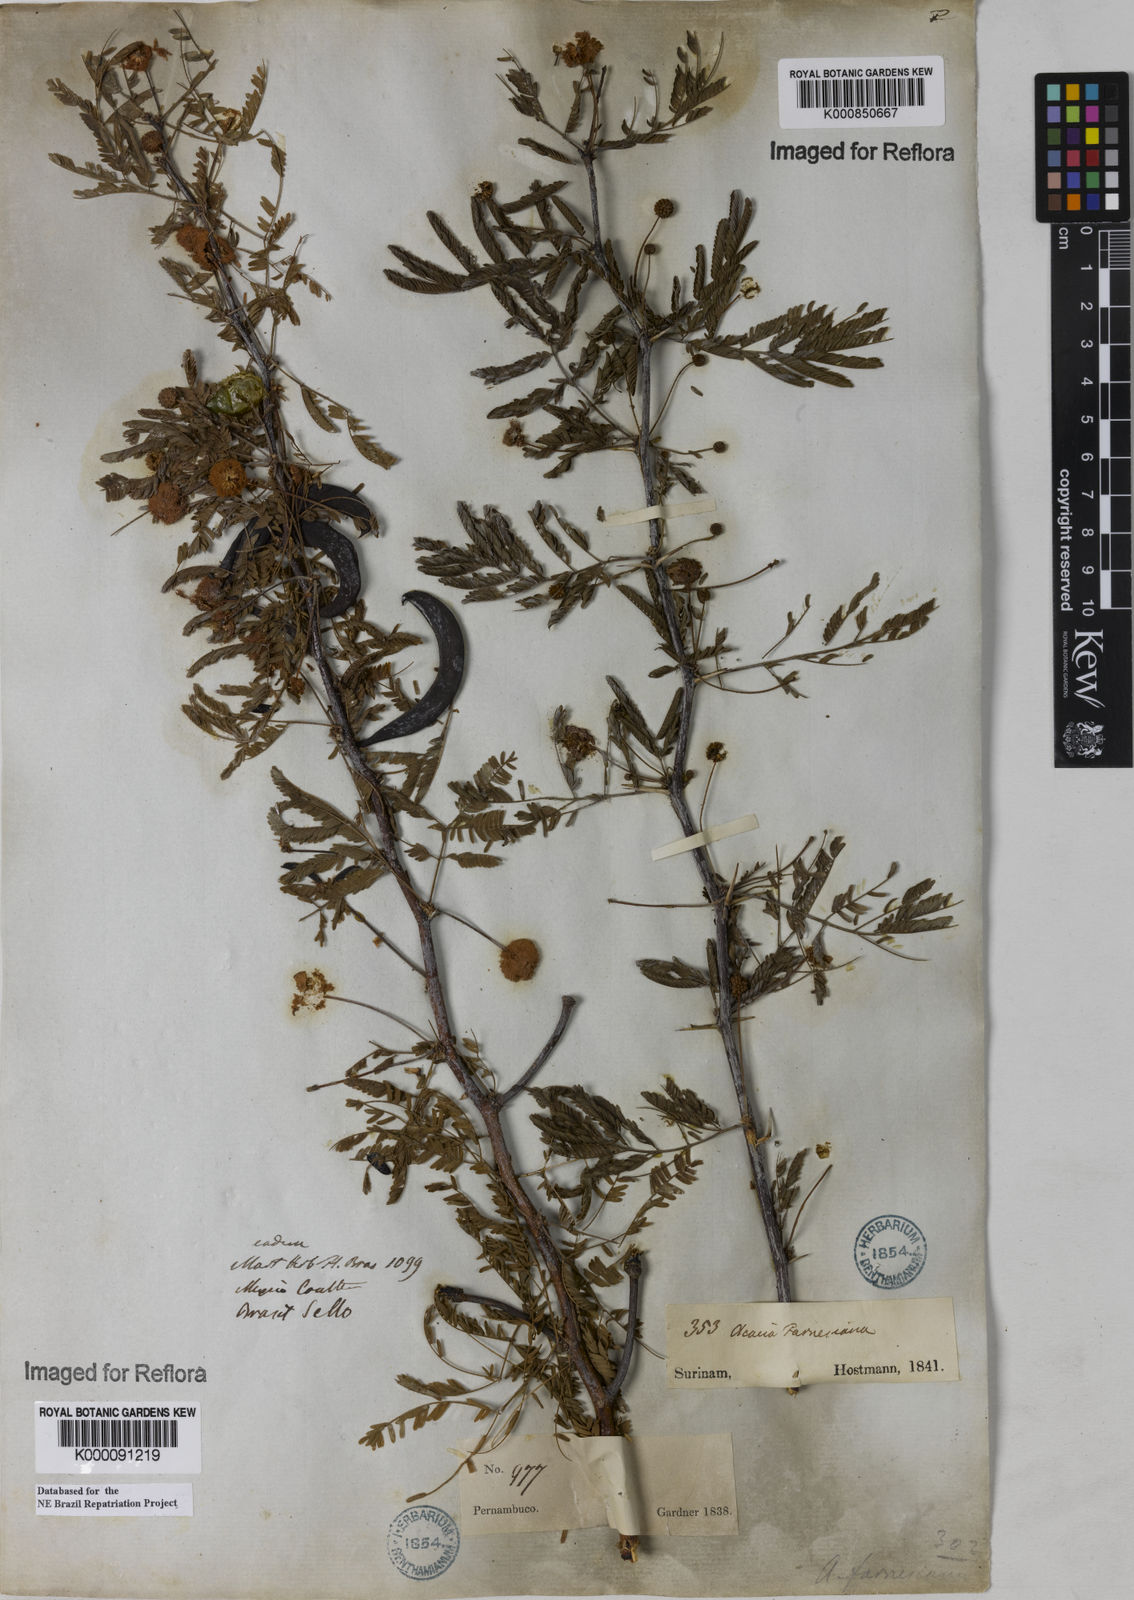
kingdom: Plantae
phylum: Tracheophyta
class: Magnoliopsida
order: Fabales
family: Fabaceae
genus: Vachellia
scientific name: Vachellia farnesiana
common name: Sweet acacia
